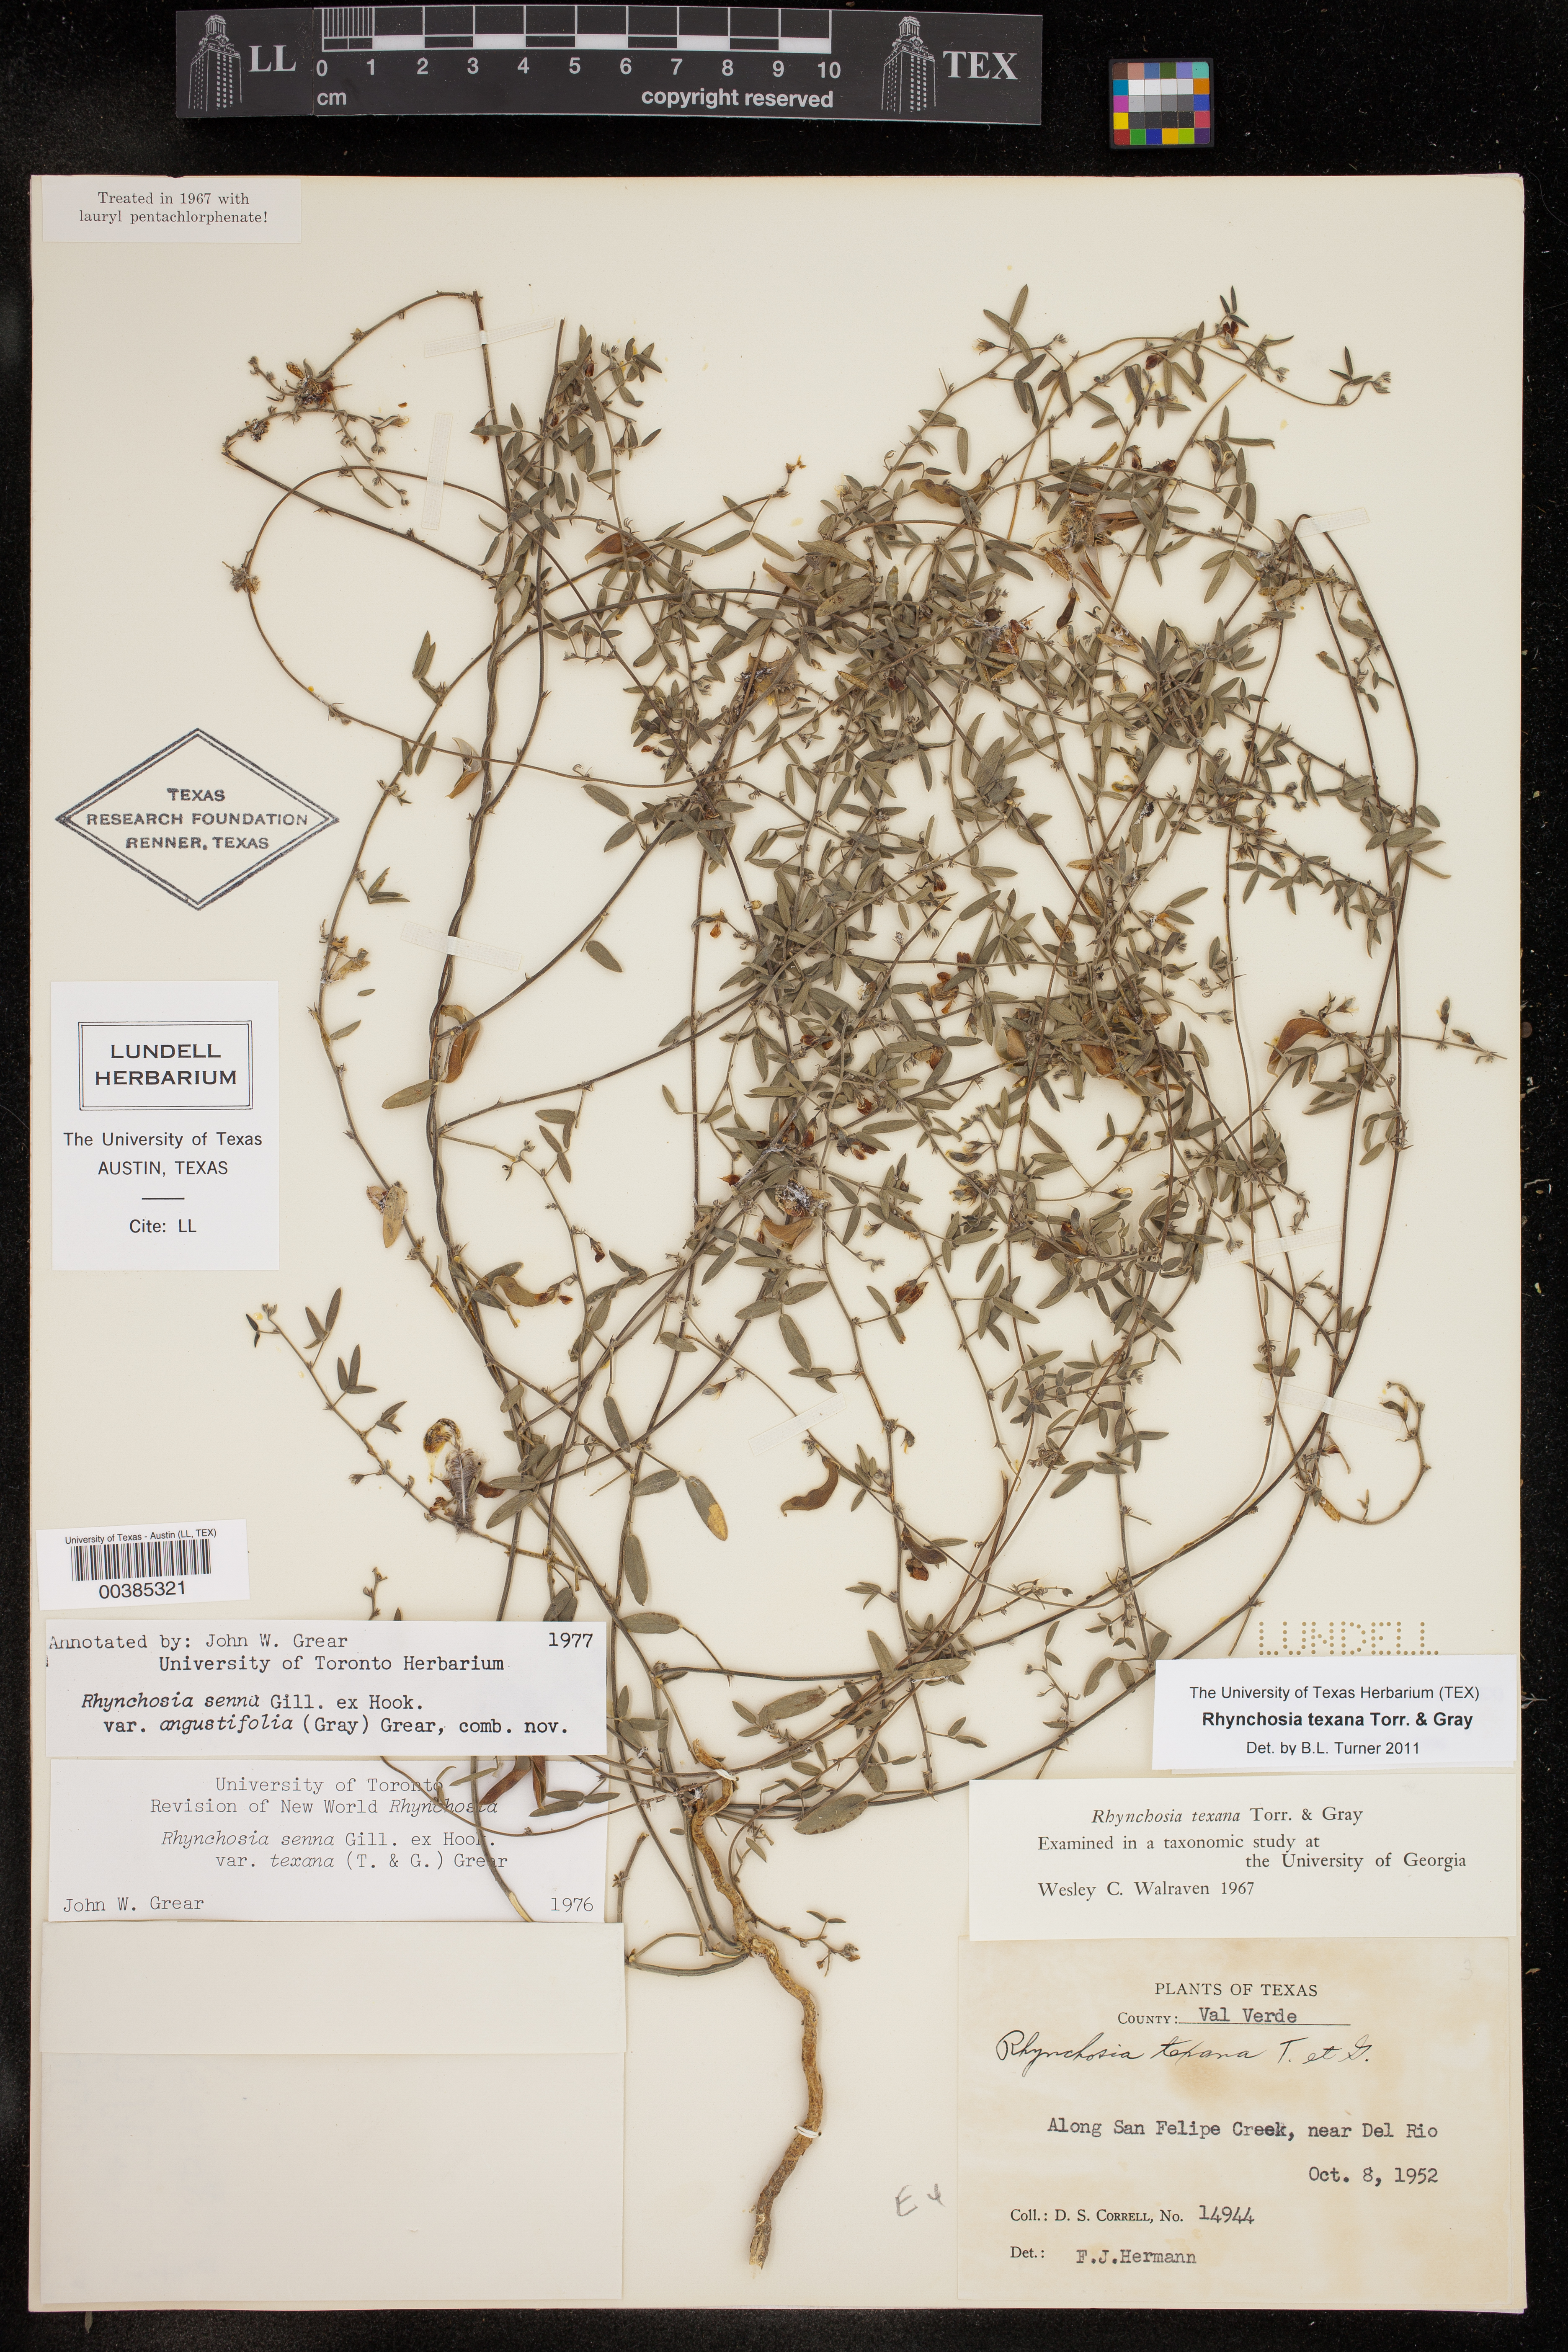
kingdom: Plantae
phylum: Tracheophyta
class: Magnoliopsida
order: Fabales
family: Fabaceae
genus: Rhynchosia
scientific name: Rhynchosia senna
